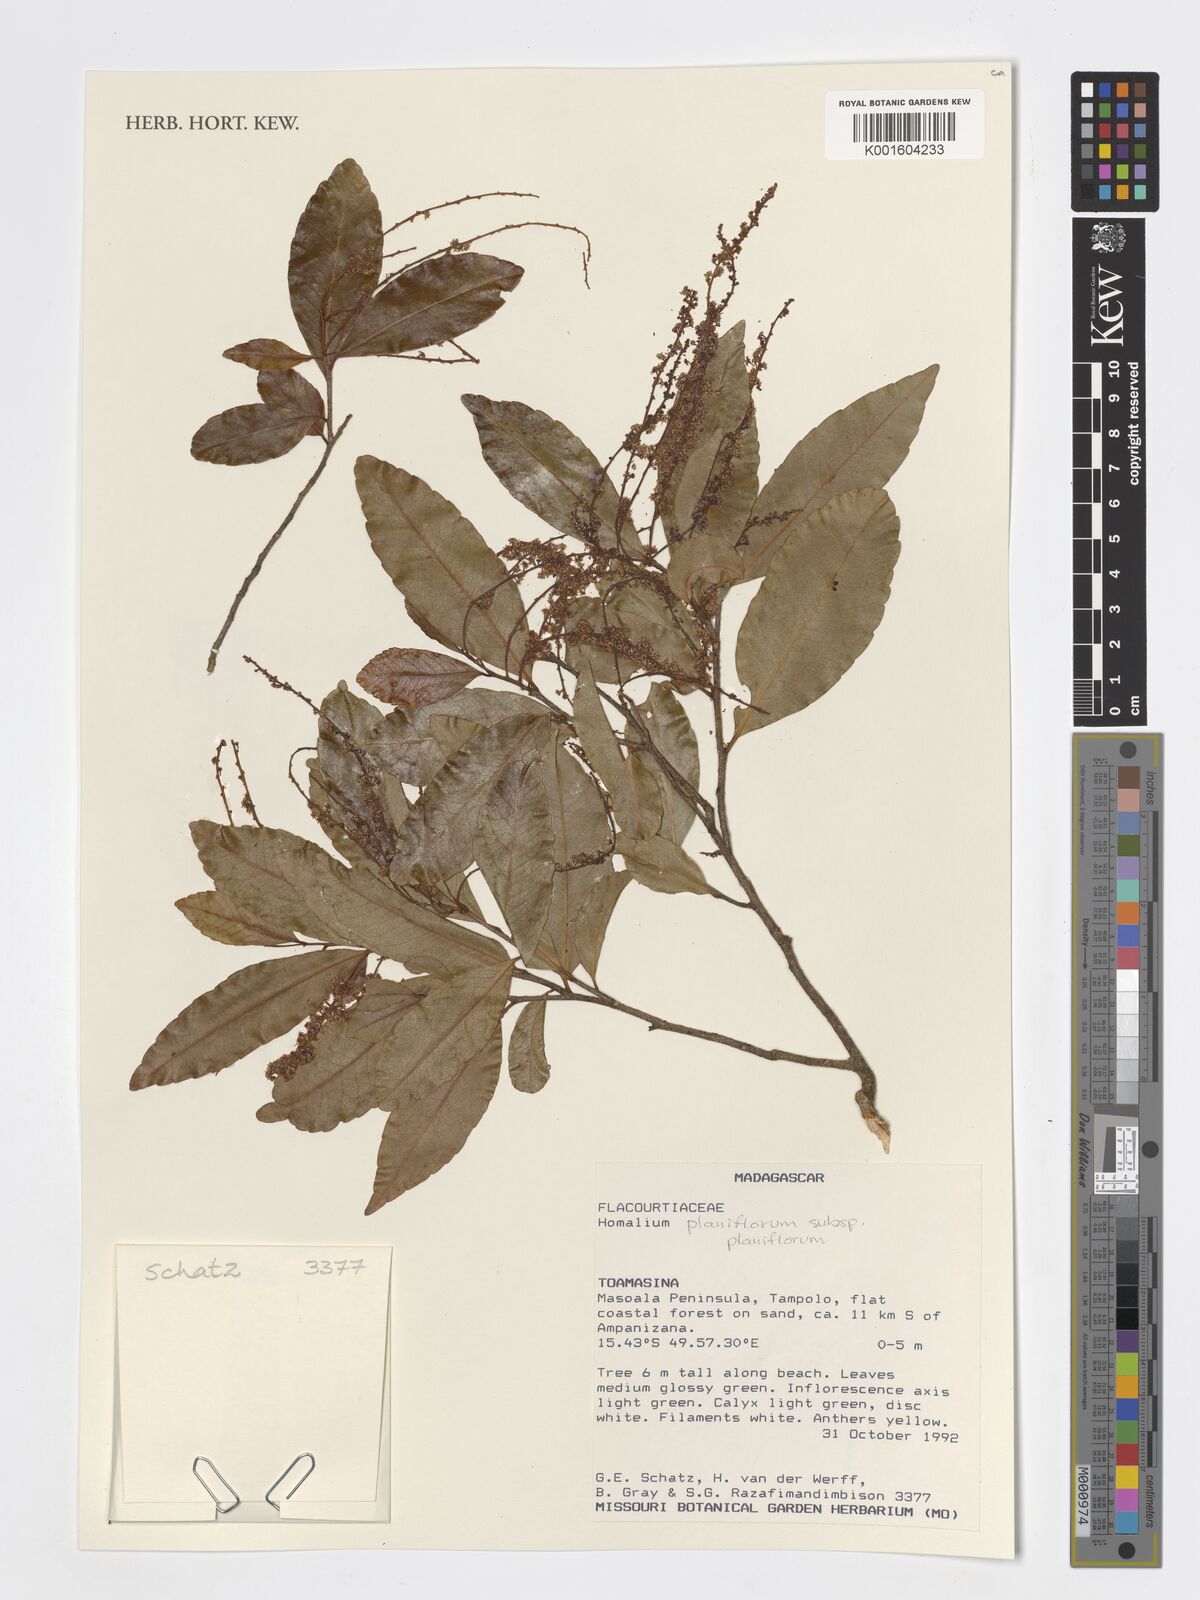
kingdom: Plantae
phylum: Tracheophyta
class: Magnoliopsida
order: Malpighiales
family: Salicaceae
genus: Homalium
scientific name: Homalium planiflorum
